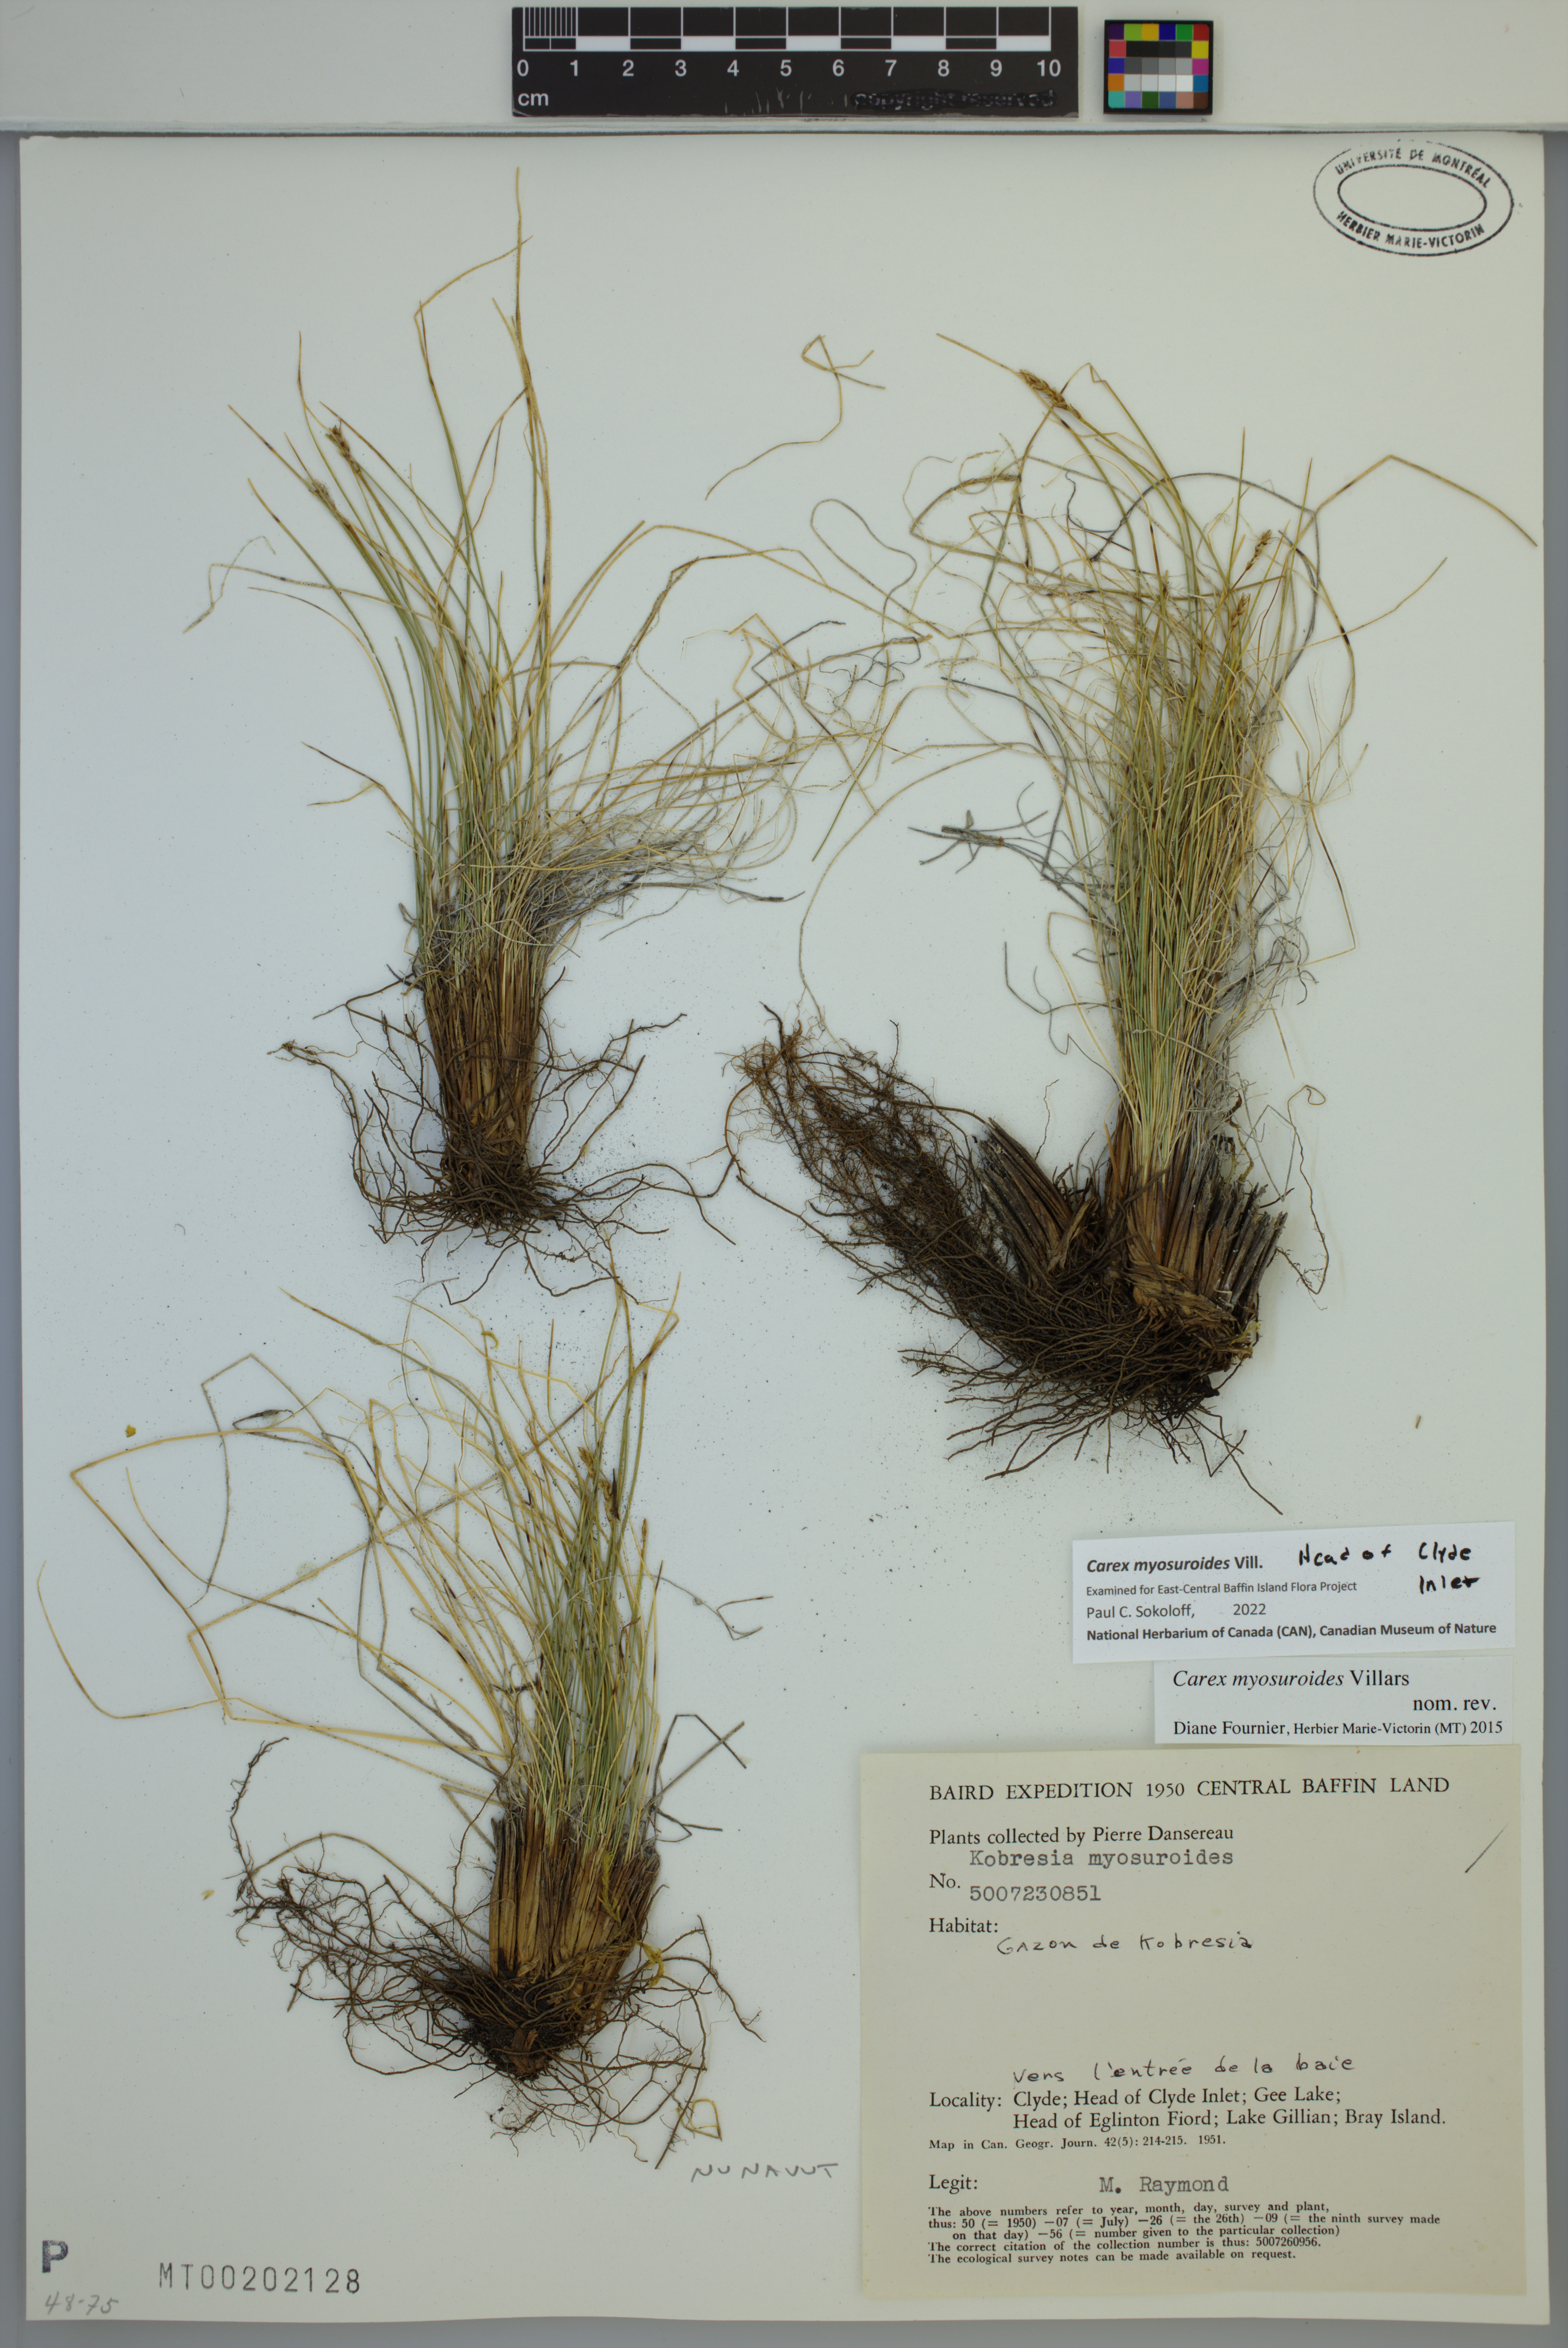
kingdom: Plantae
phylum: Tracheophyta
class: Liliopsida
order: Poales
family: Cyperaceae
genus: Carex
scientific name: Carex myosuroides
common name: Bellard's bog sedge
